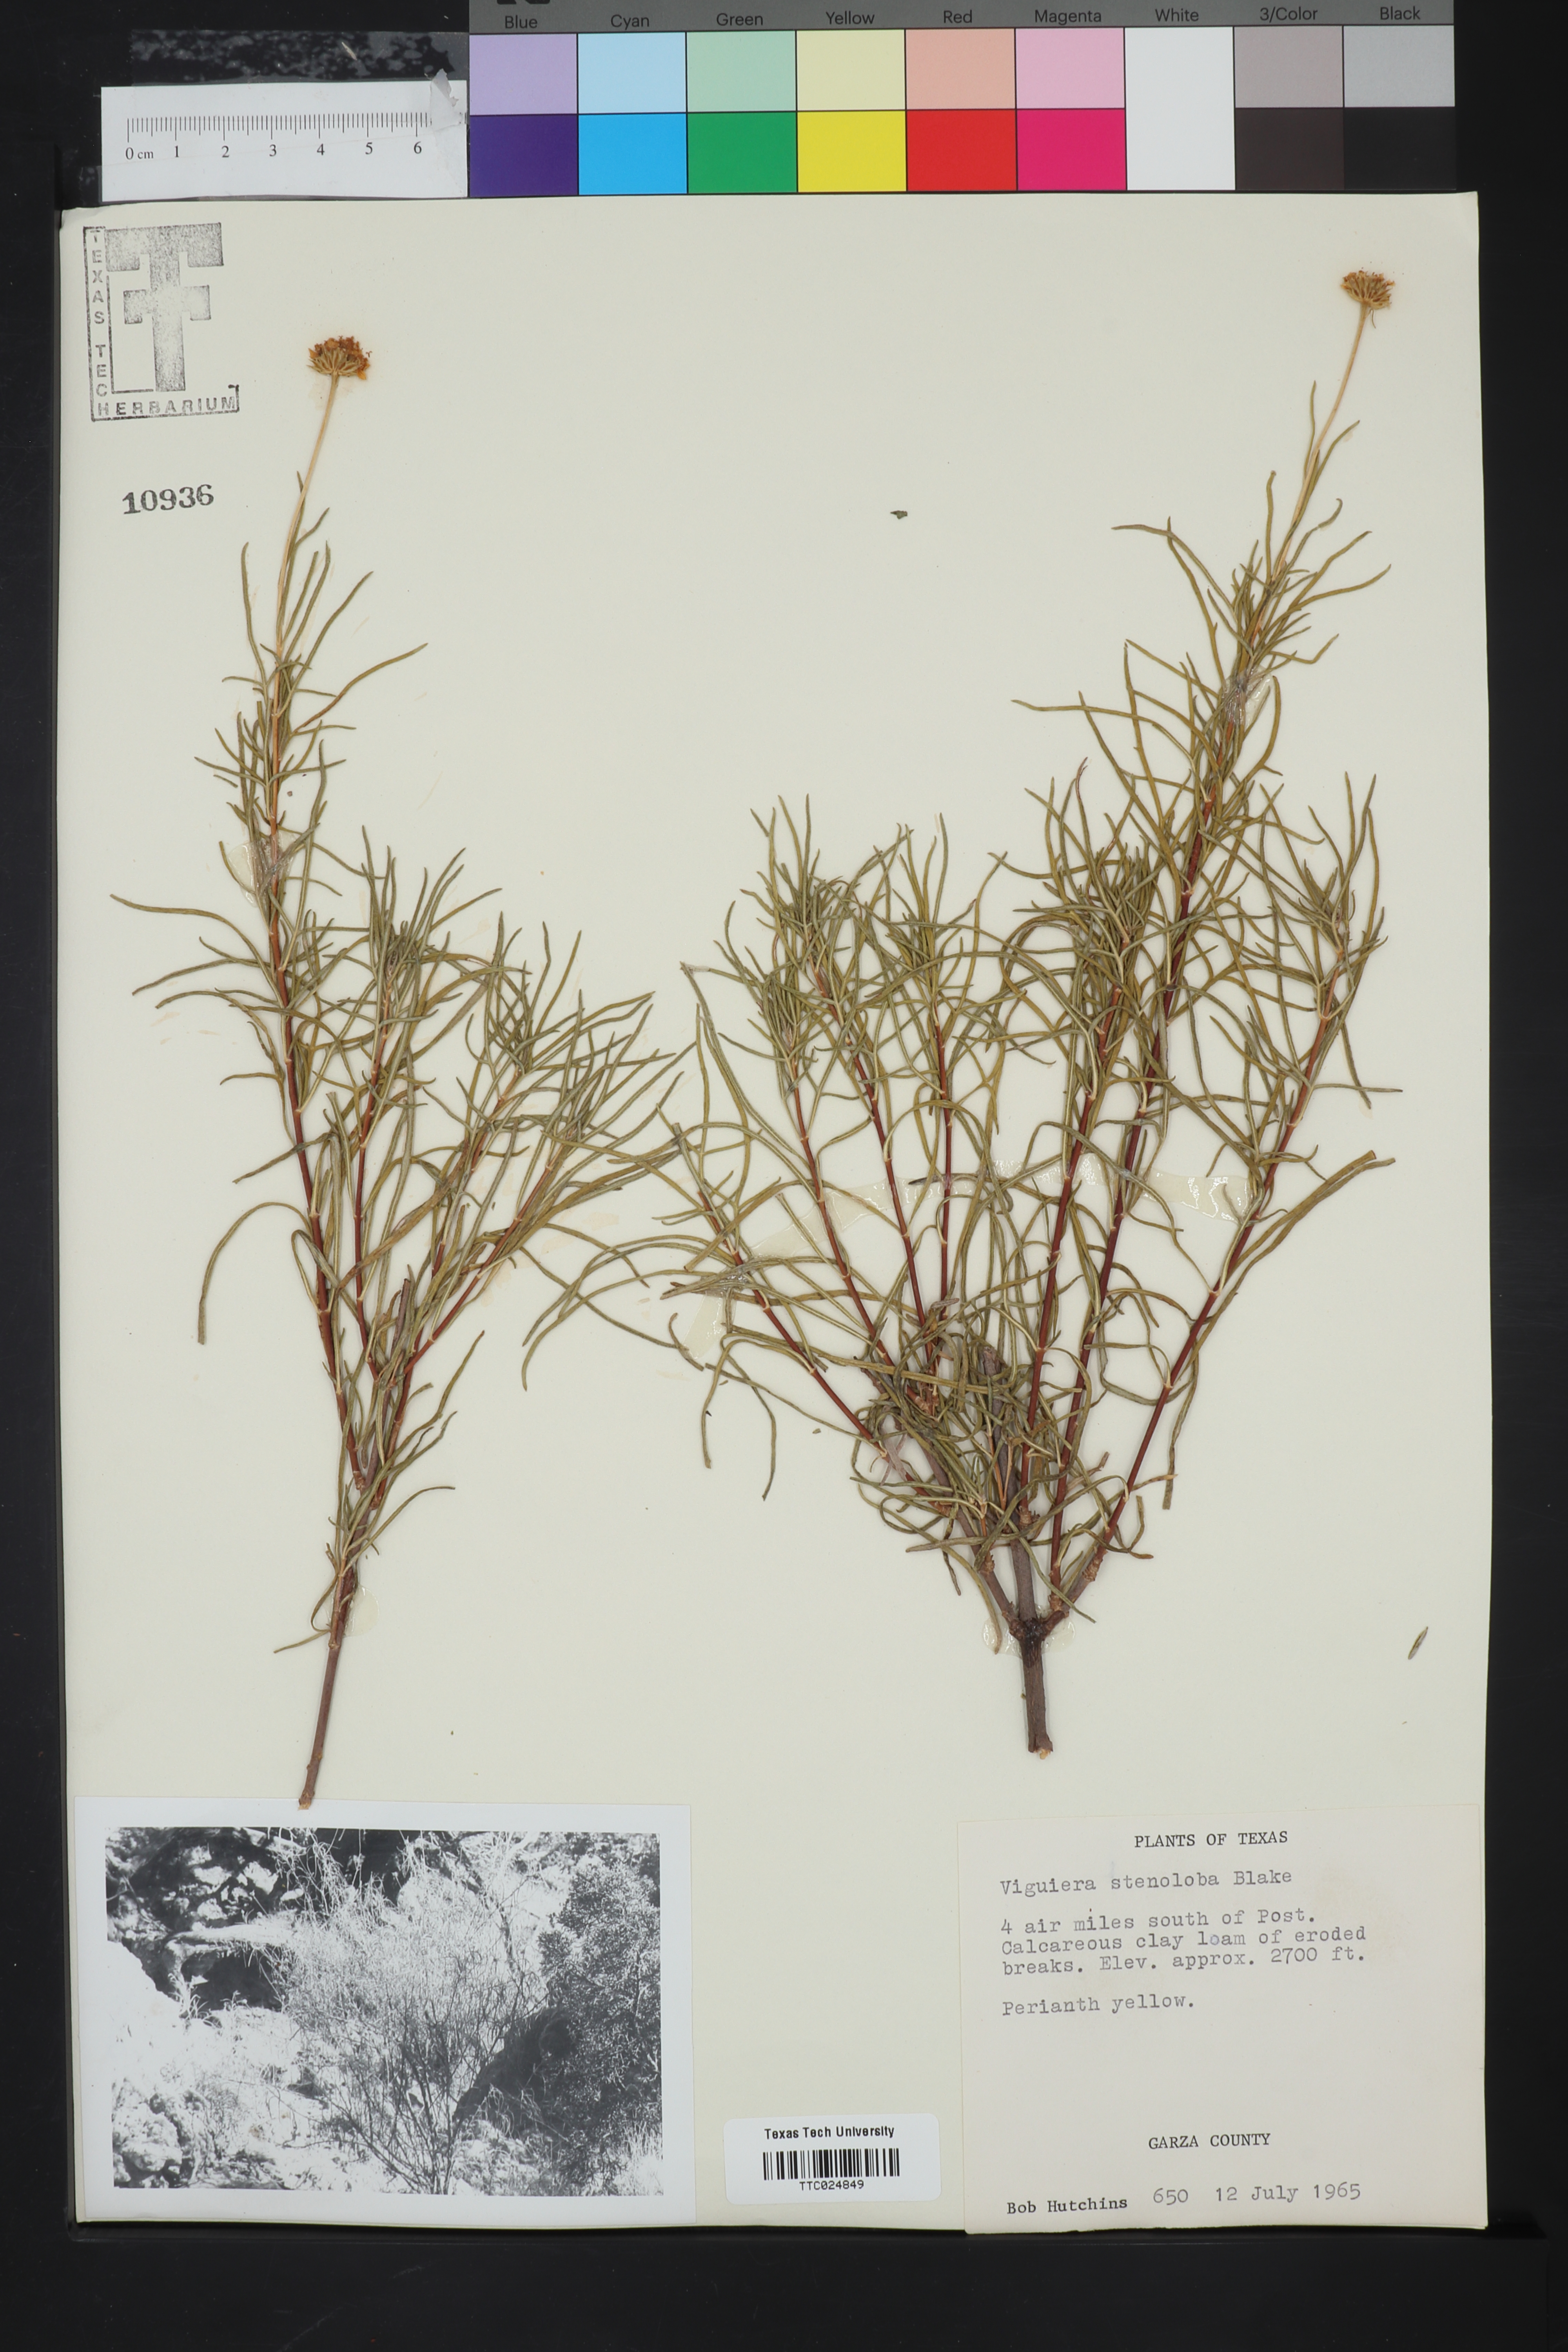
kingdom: Plantae
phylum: Tracheophyta
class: Magnoliopsida
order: Asterales
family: Asteraceae
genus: Sidneya
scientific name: Sidneya tenuifolia
